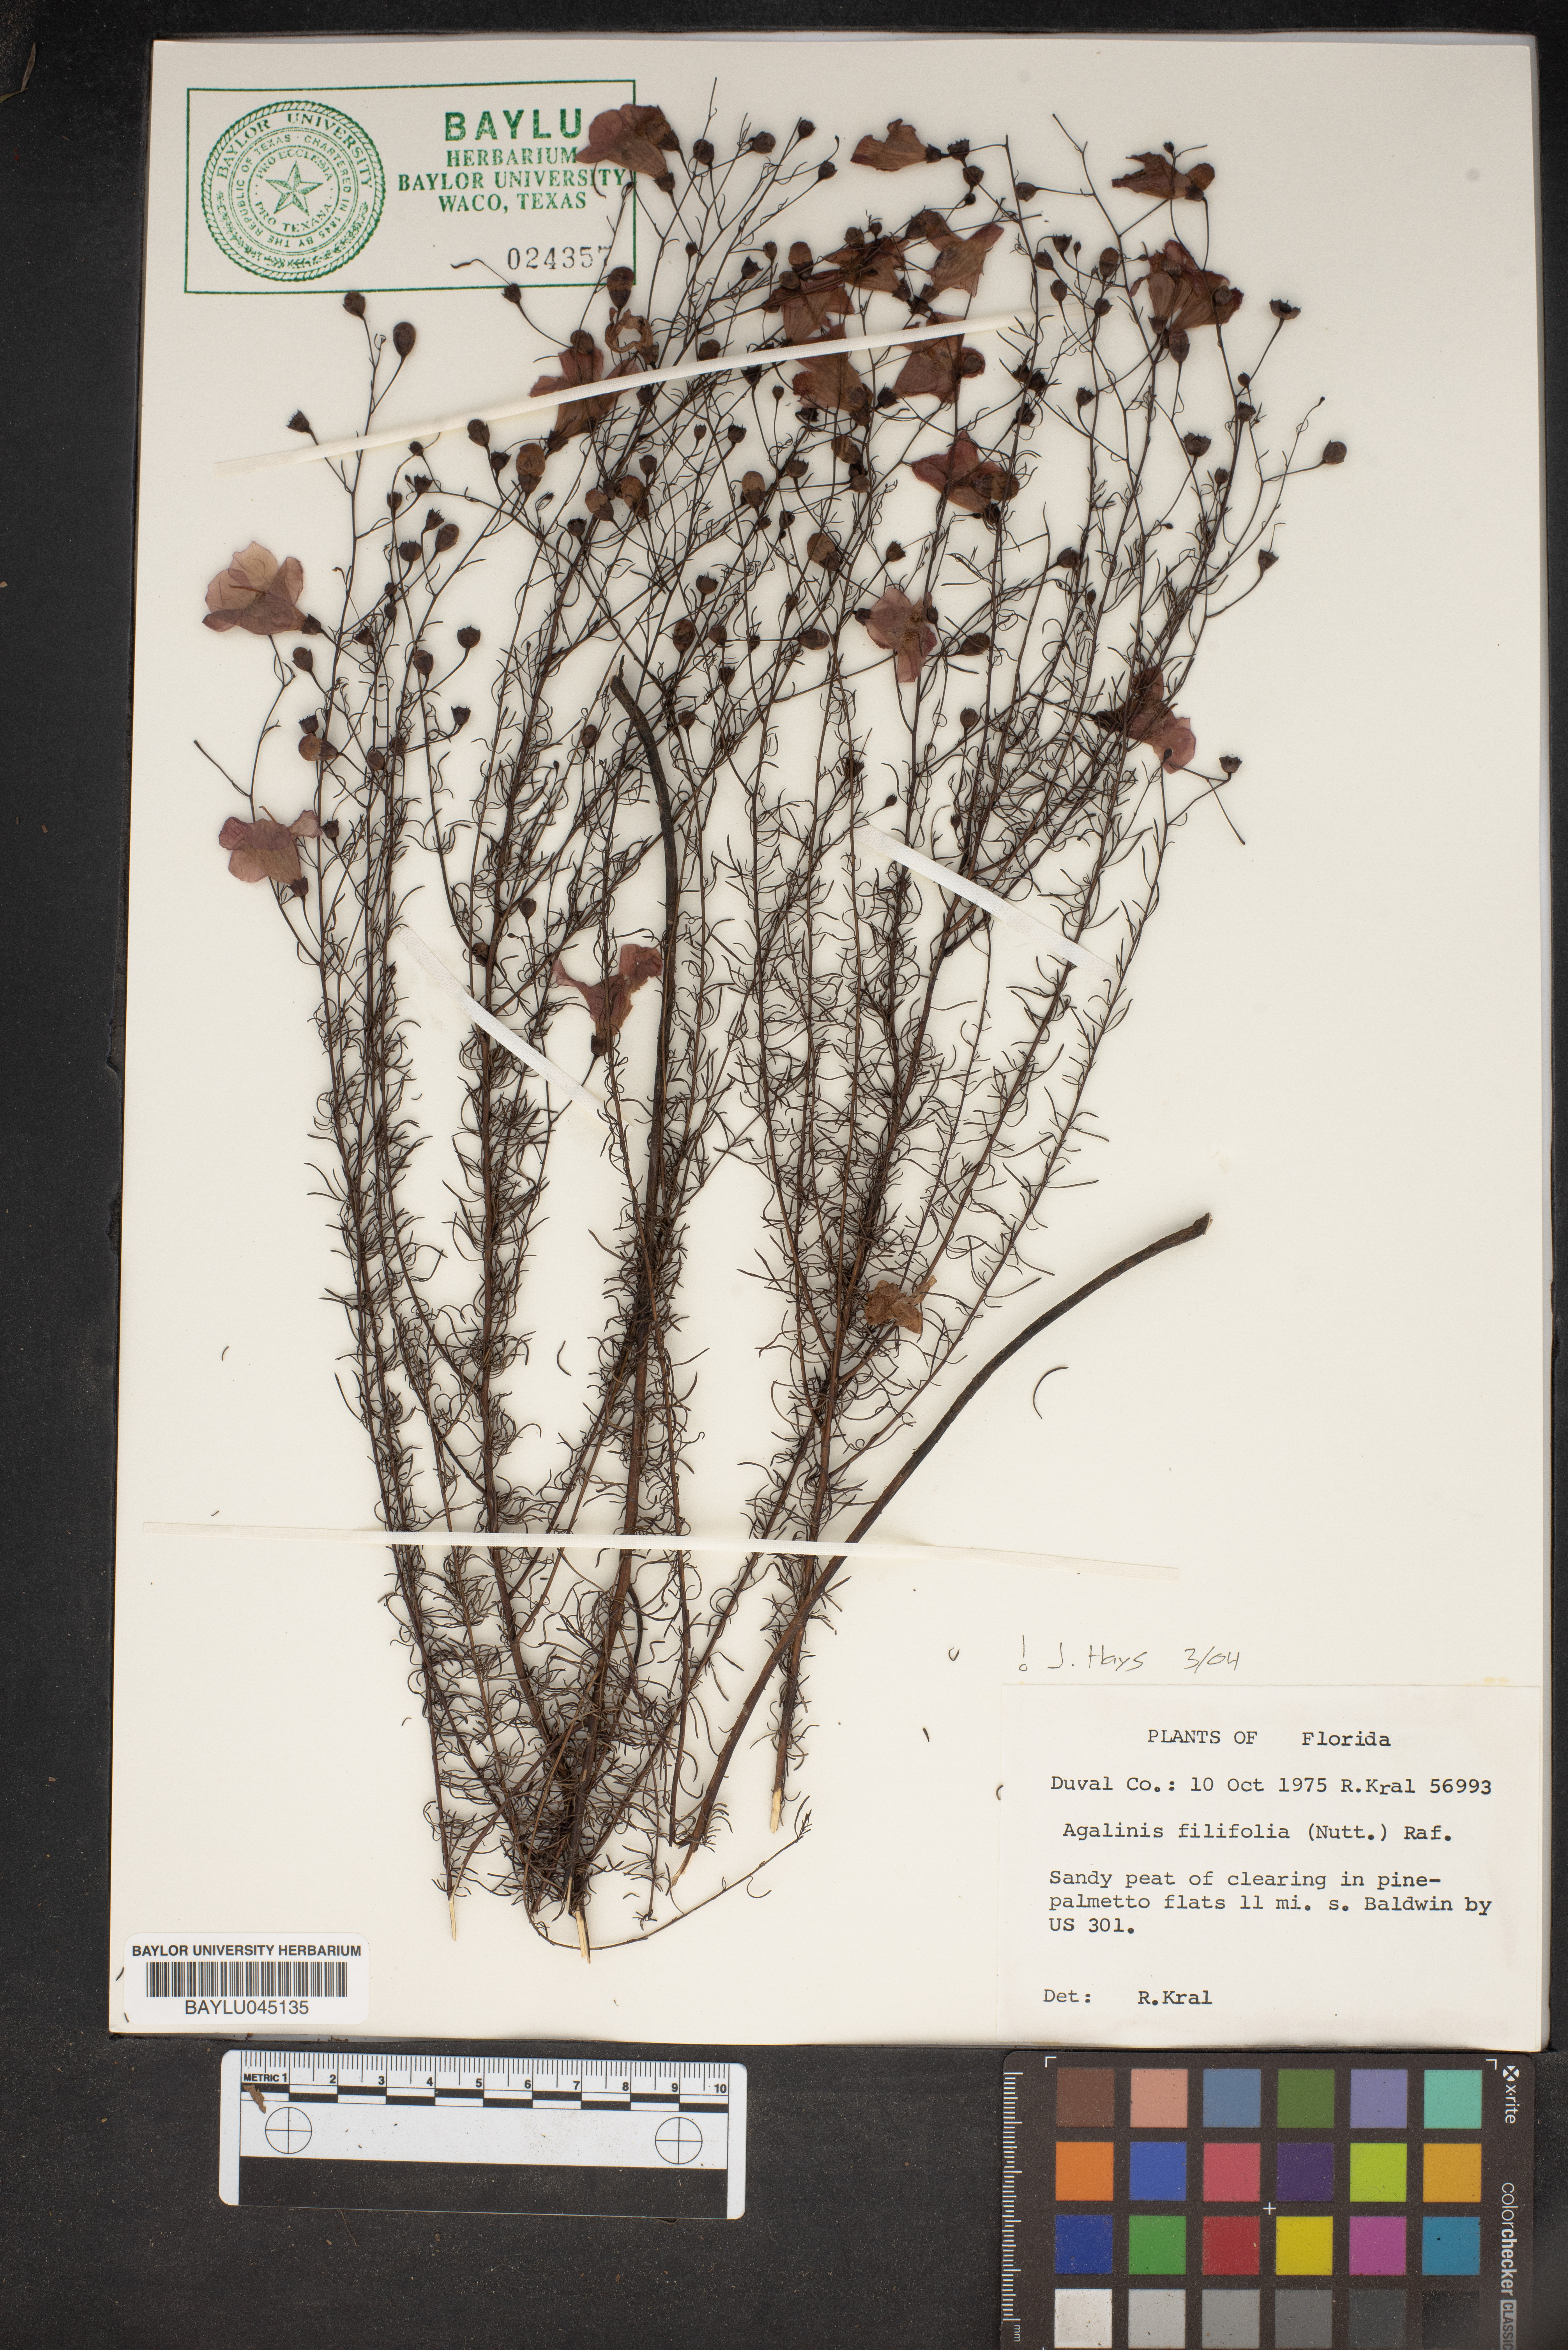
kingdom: Plantae
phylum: Tracheophyta
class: Magnoliopsida
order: Lamiales
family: Orobanchaceae
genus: Agalinis
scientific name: Agalinis filifolia
